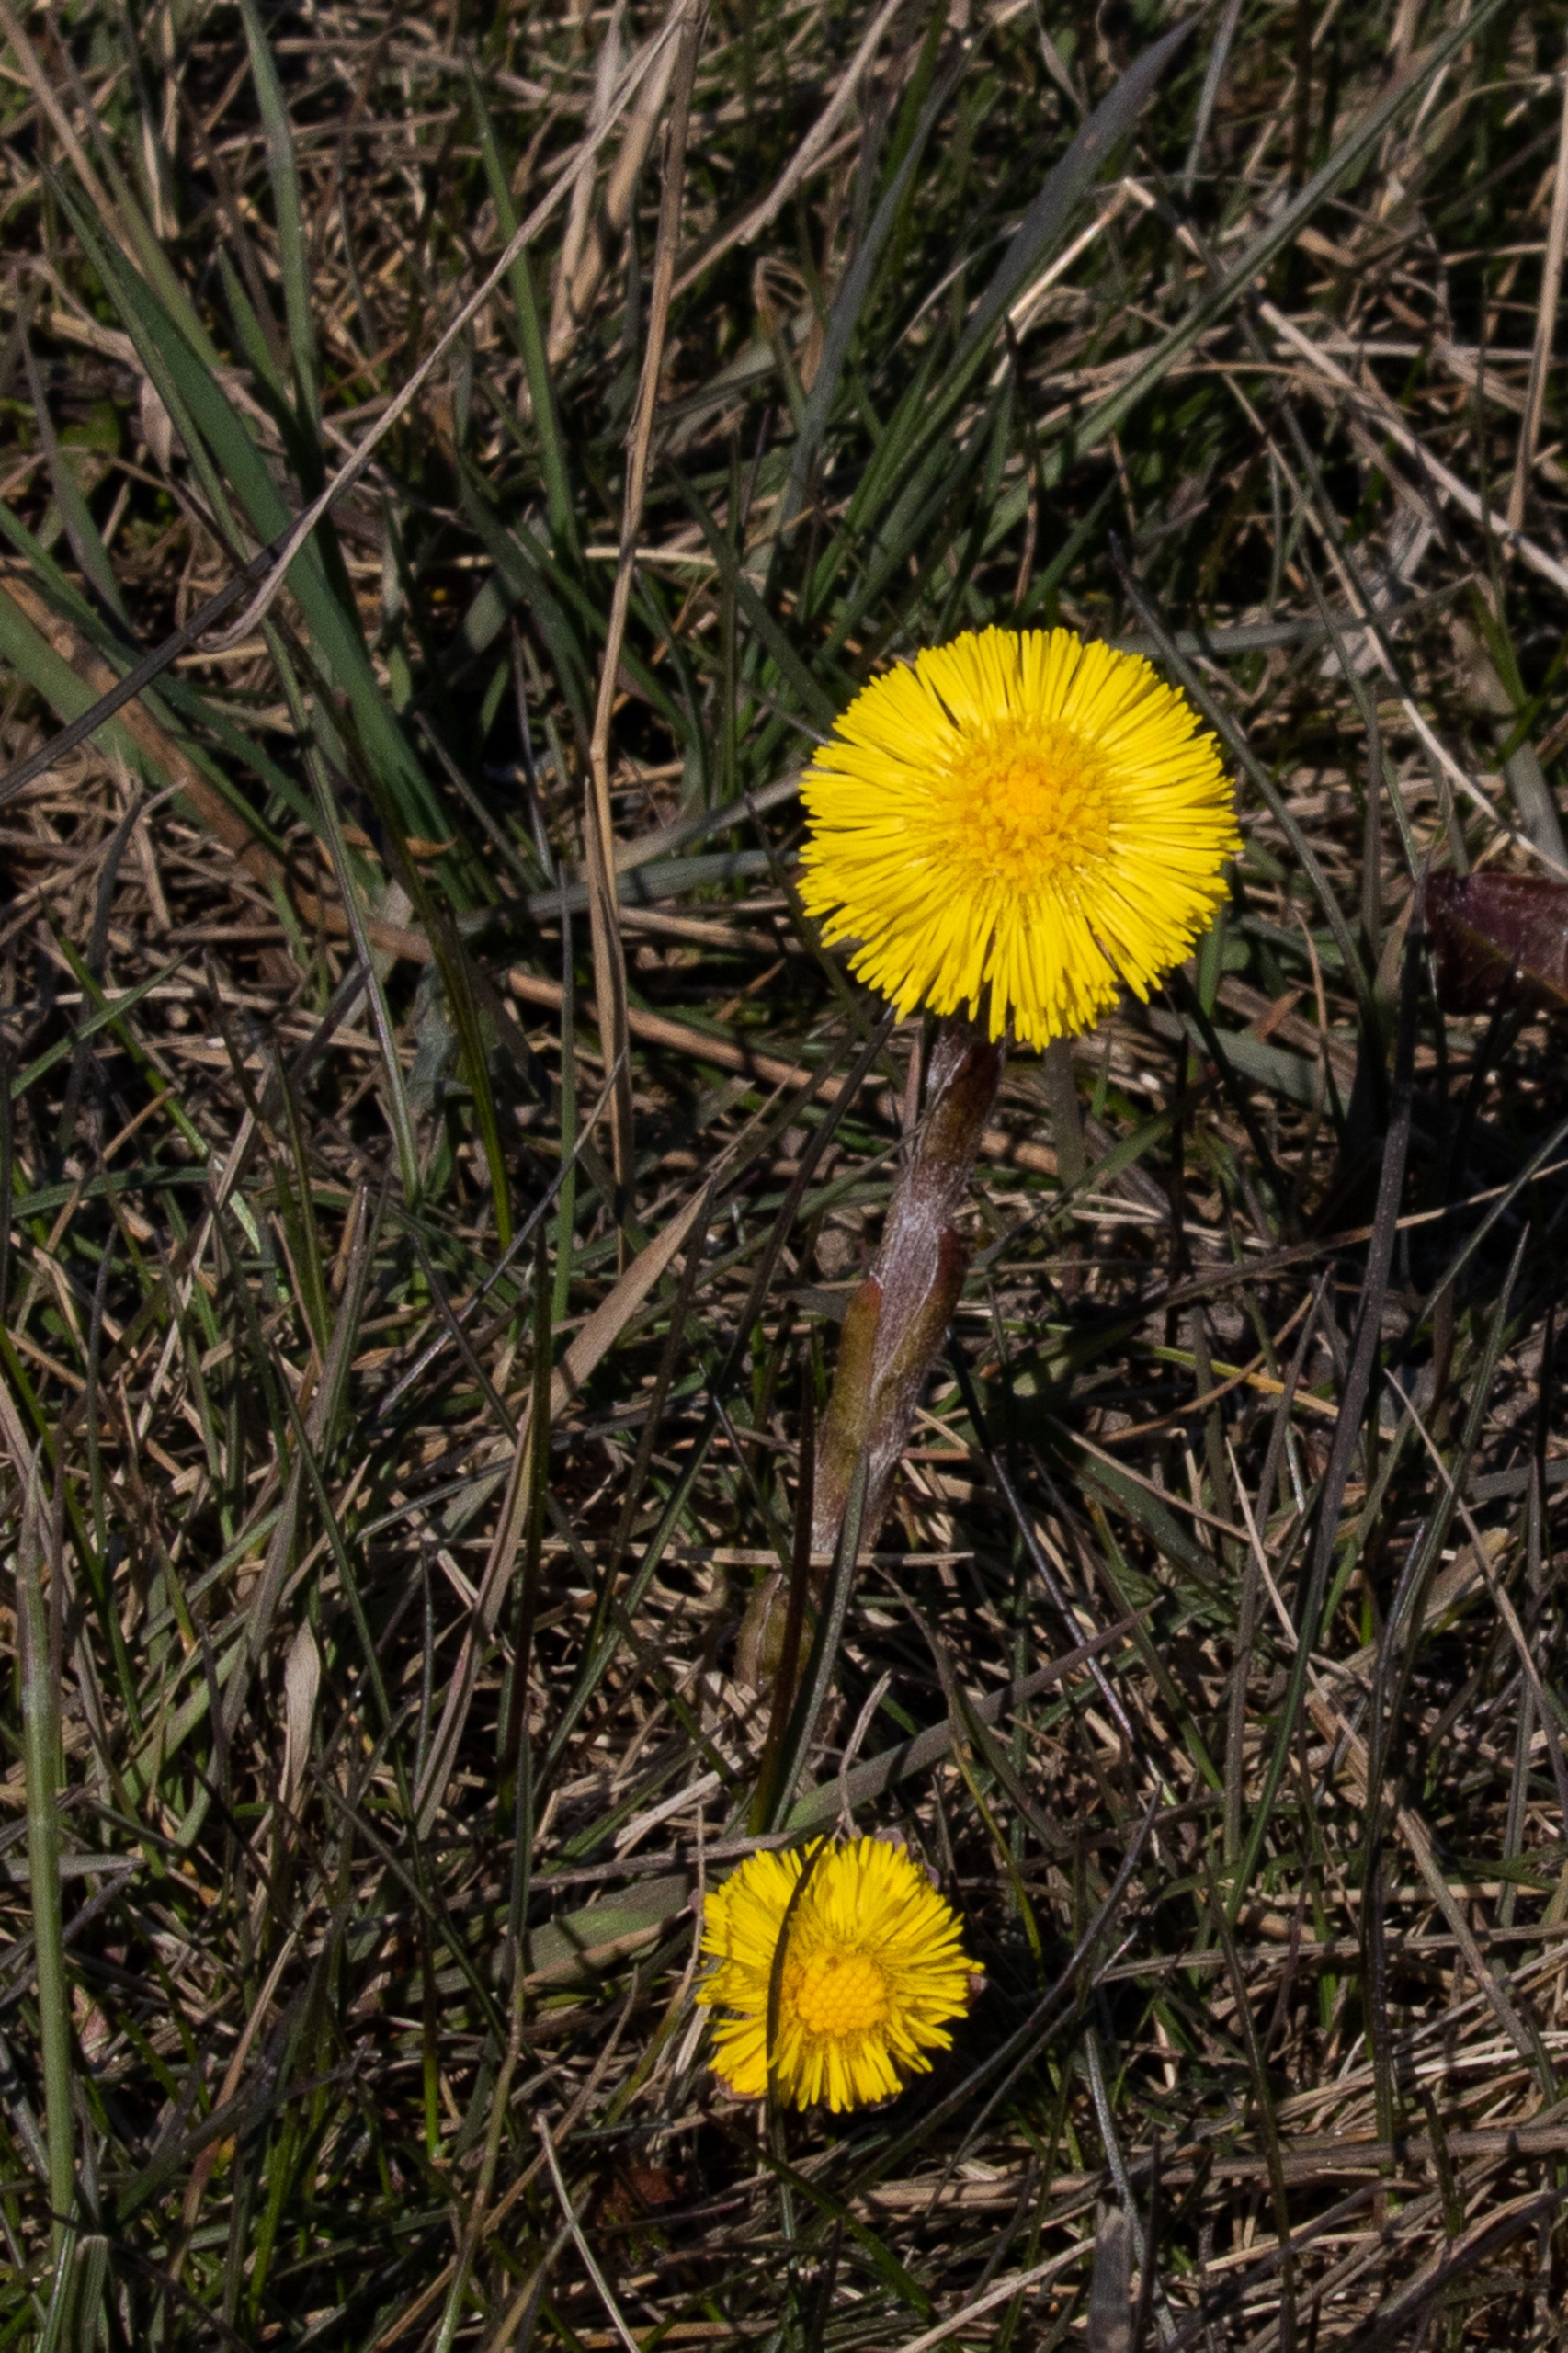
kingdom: Plantae
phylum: Tracheophyta
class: Magnoliopsida
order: Asterales
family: Asteraceae
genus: Tussilago
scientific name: Tussilago farfara
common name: Følfod
